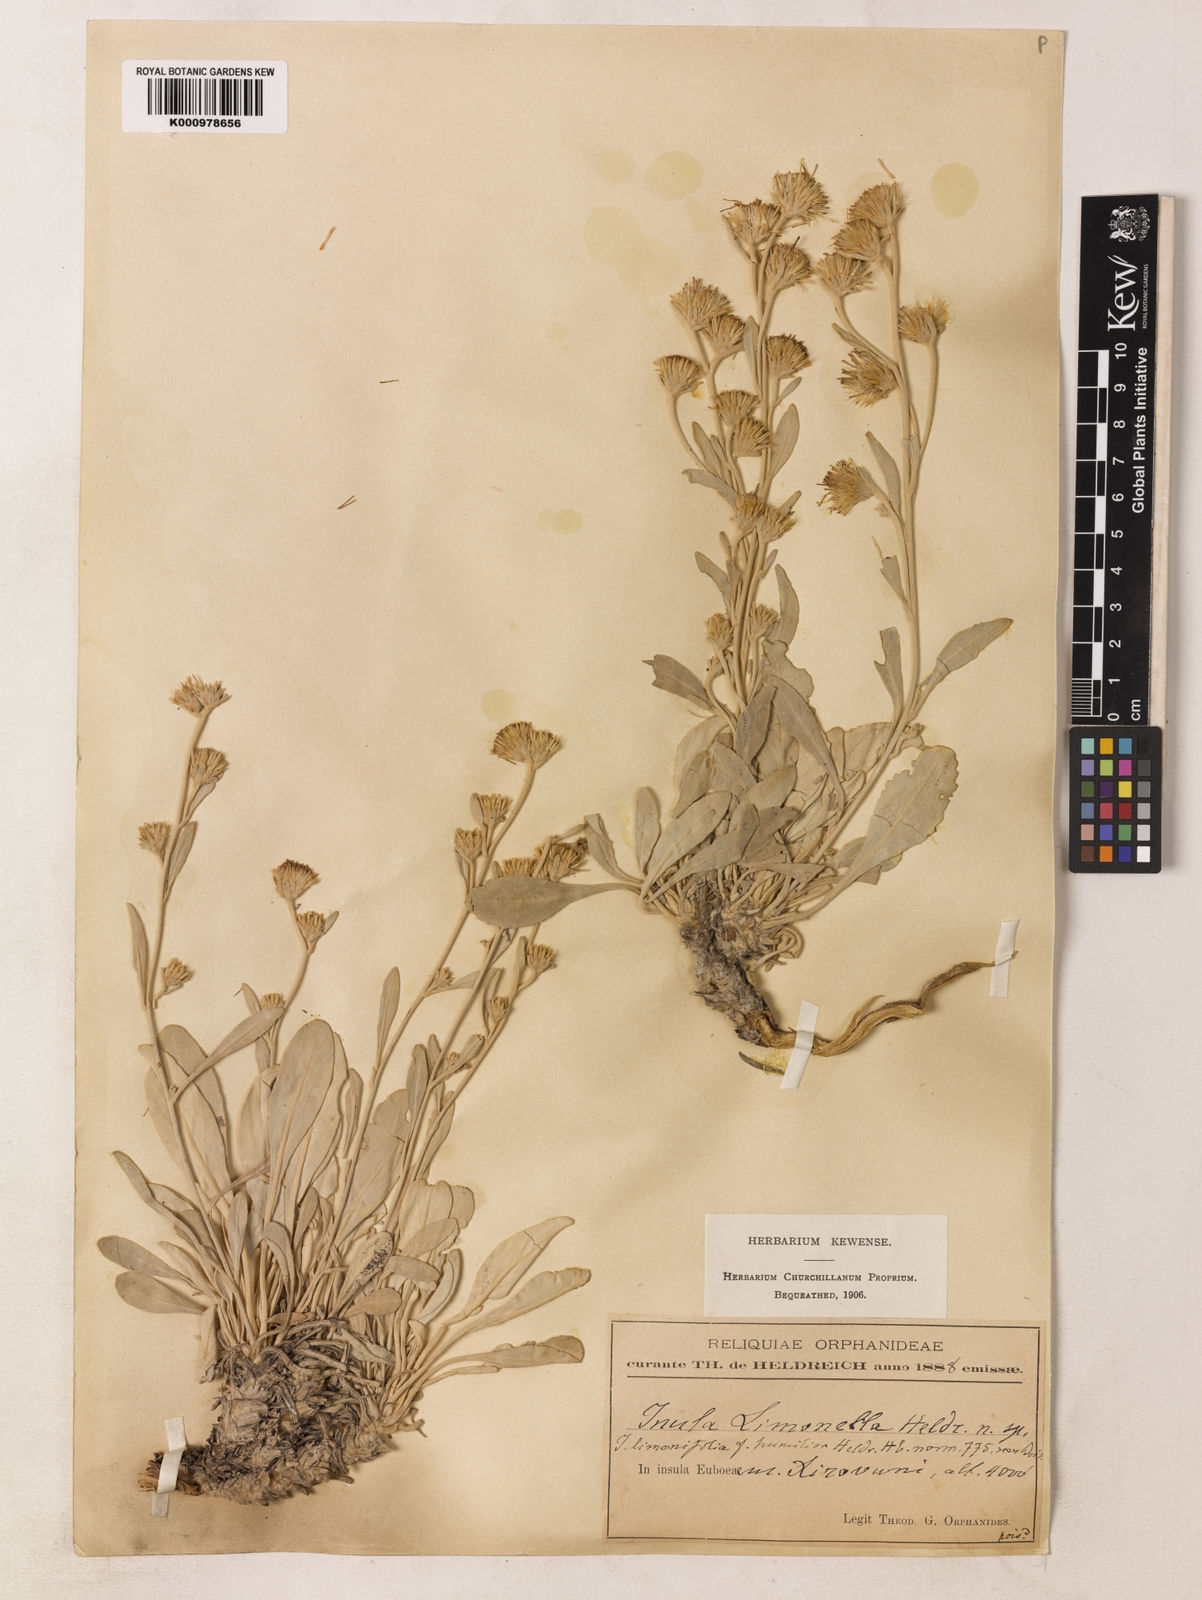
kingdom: Plantae
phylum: Tracheophyta
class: Magnoliopsida
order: Asterales
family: Asteraceae
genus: Inula
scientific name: Inula
